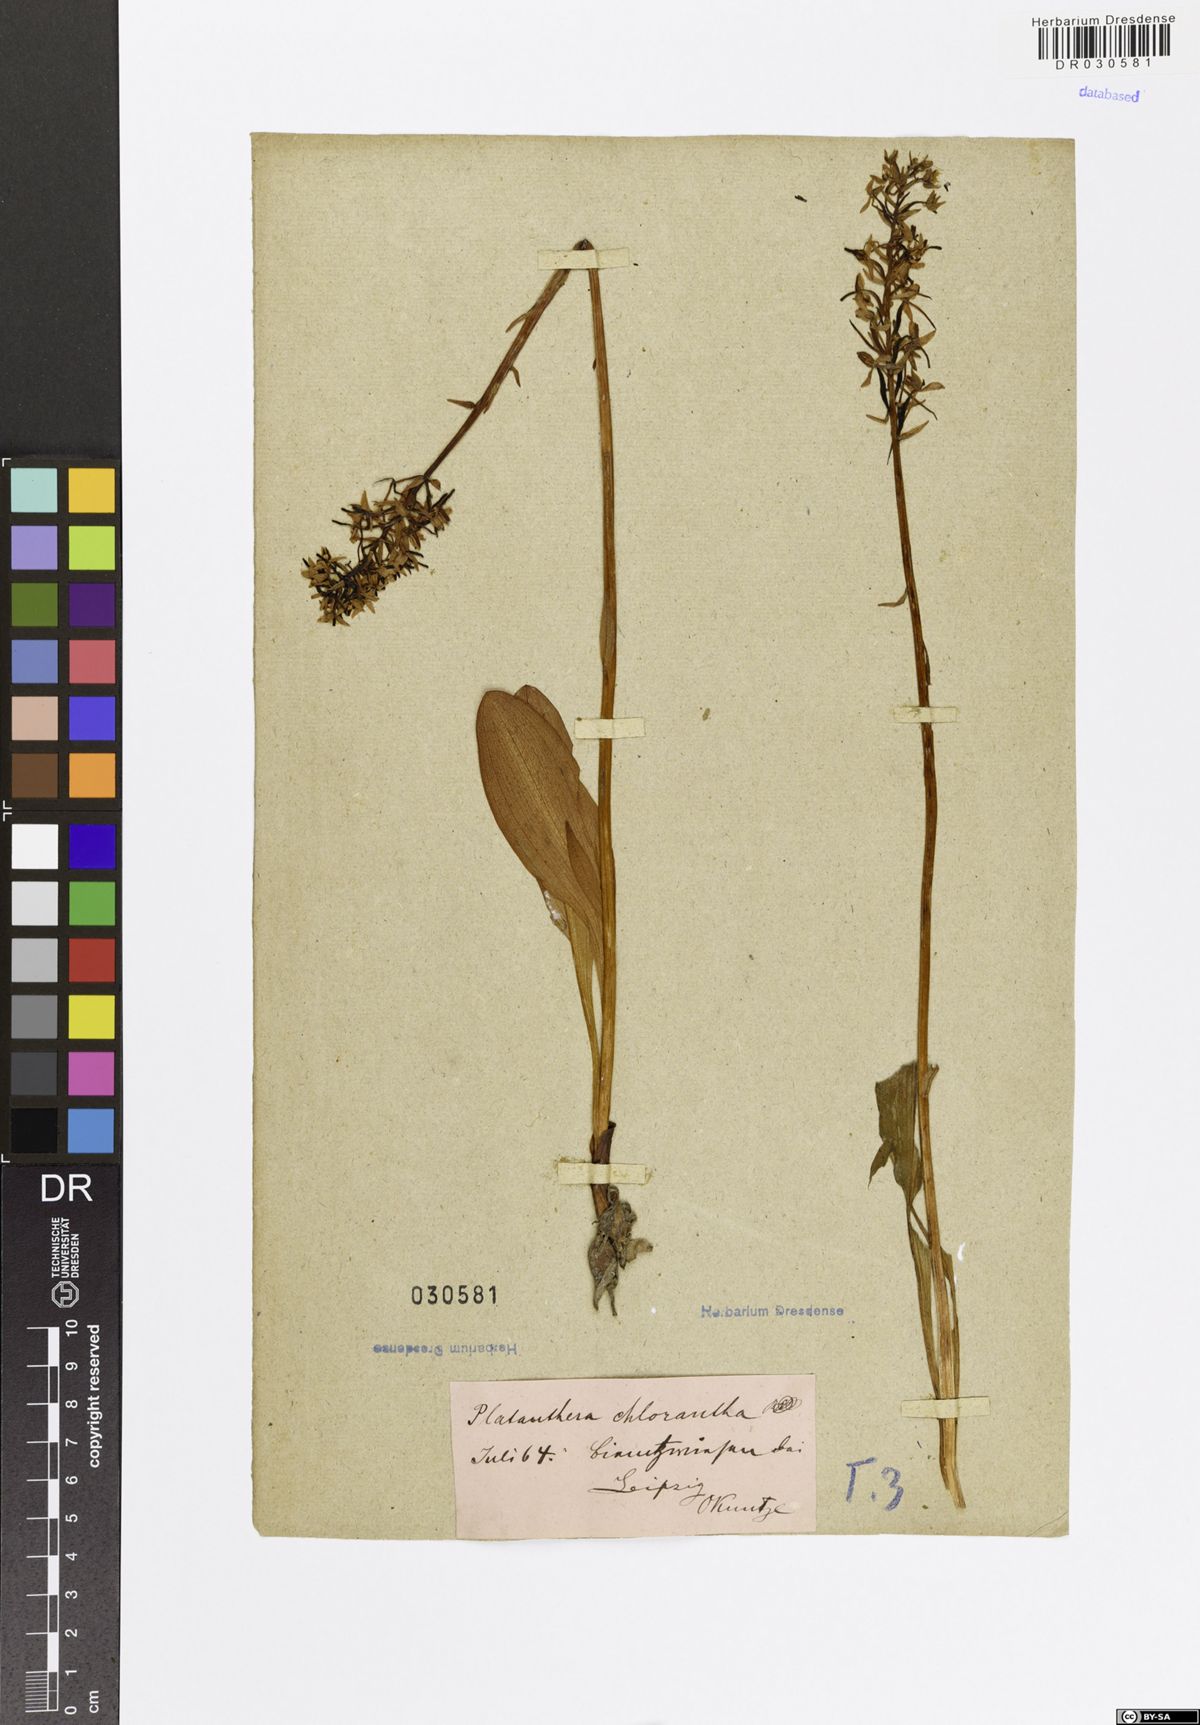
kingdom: Plantae
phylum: Tracheophyta
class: Liliopsida
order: Asparagales
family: Orchidaceae
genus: Platanthera
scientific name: Platanthera chlorantha
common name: Greater butterfly-orchid
